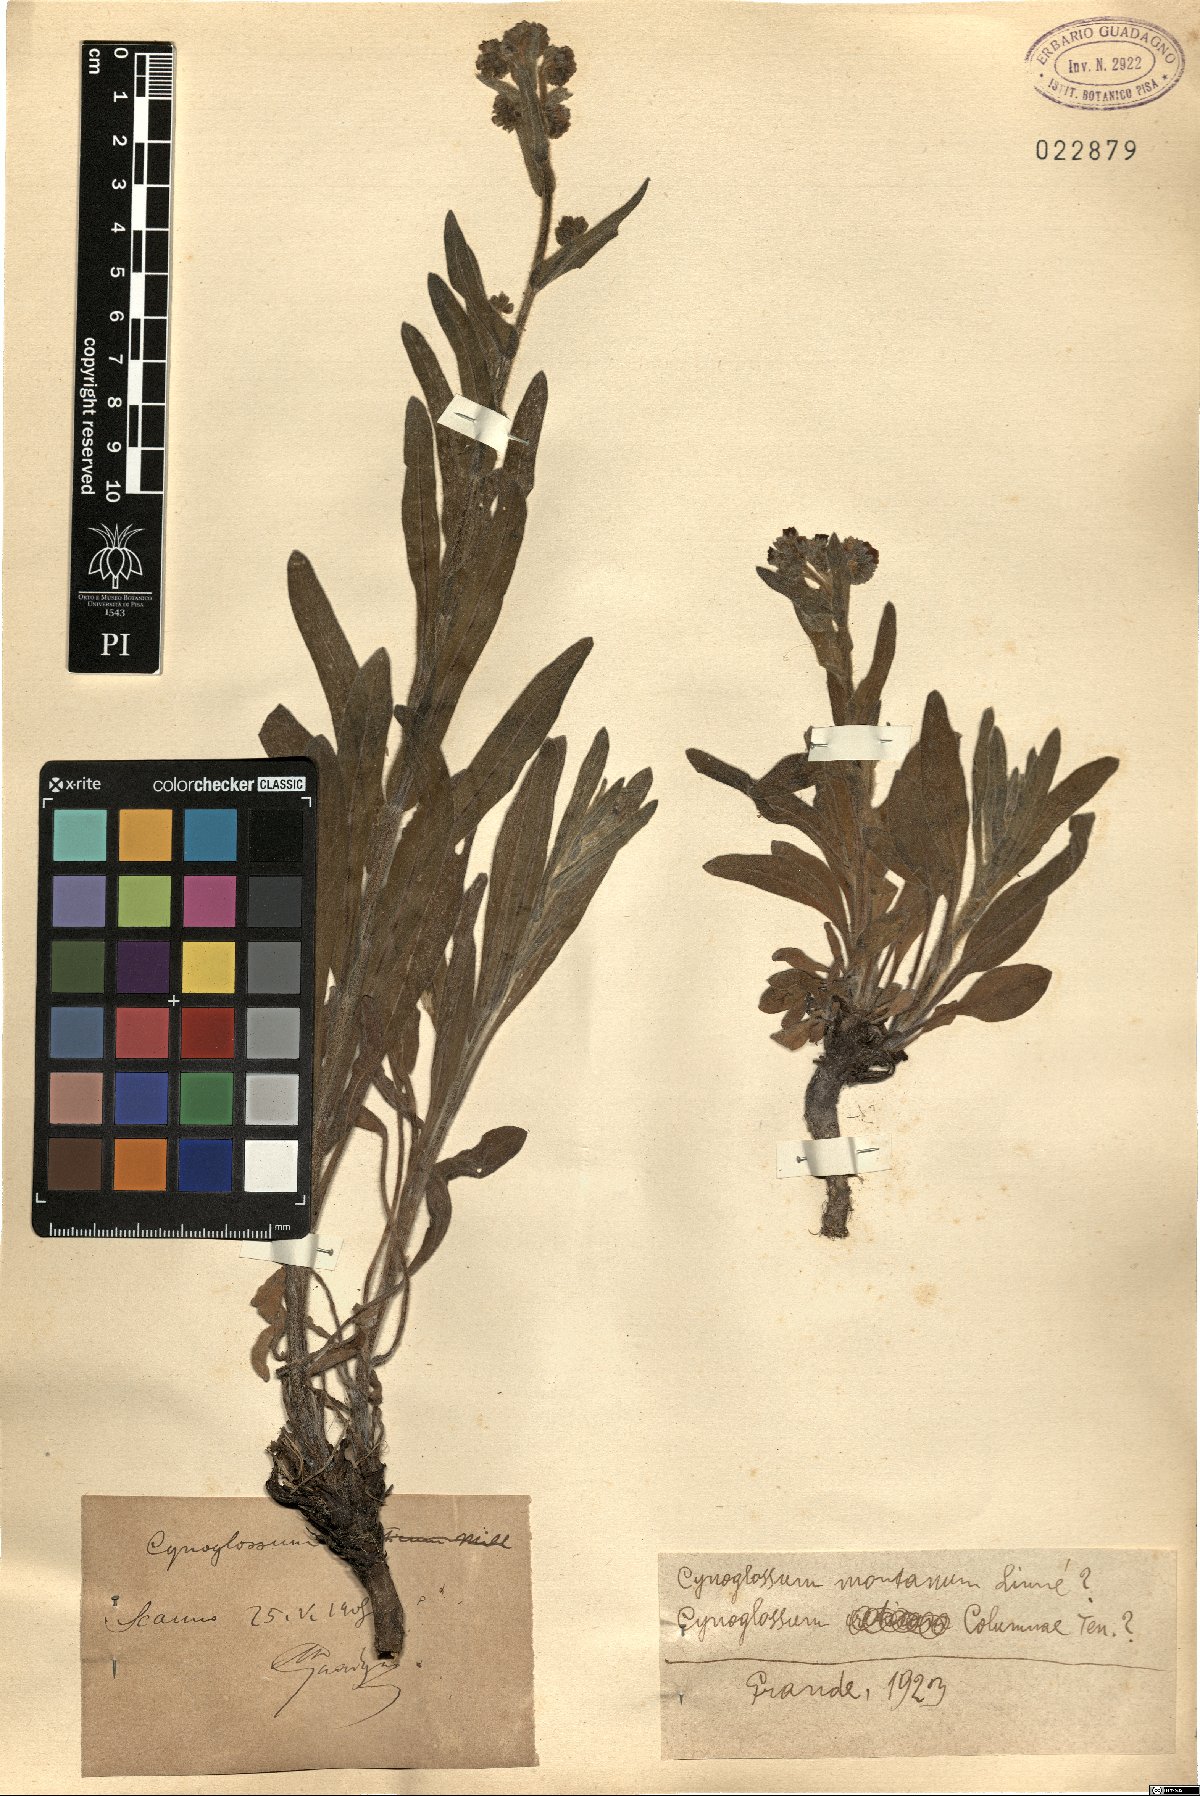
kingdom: Plantae
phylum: Tracheophyta
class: Magnoliopsida
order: Boraginales
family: Boraginaceae
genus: Cynoglossum
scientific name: Cynoglossum montanum
